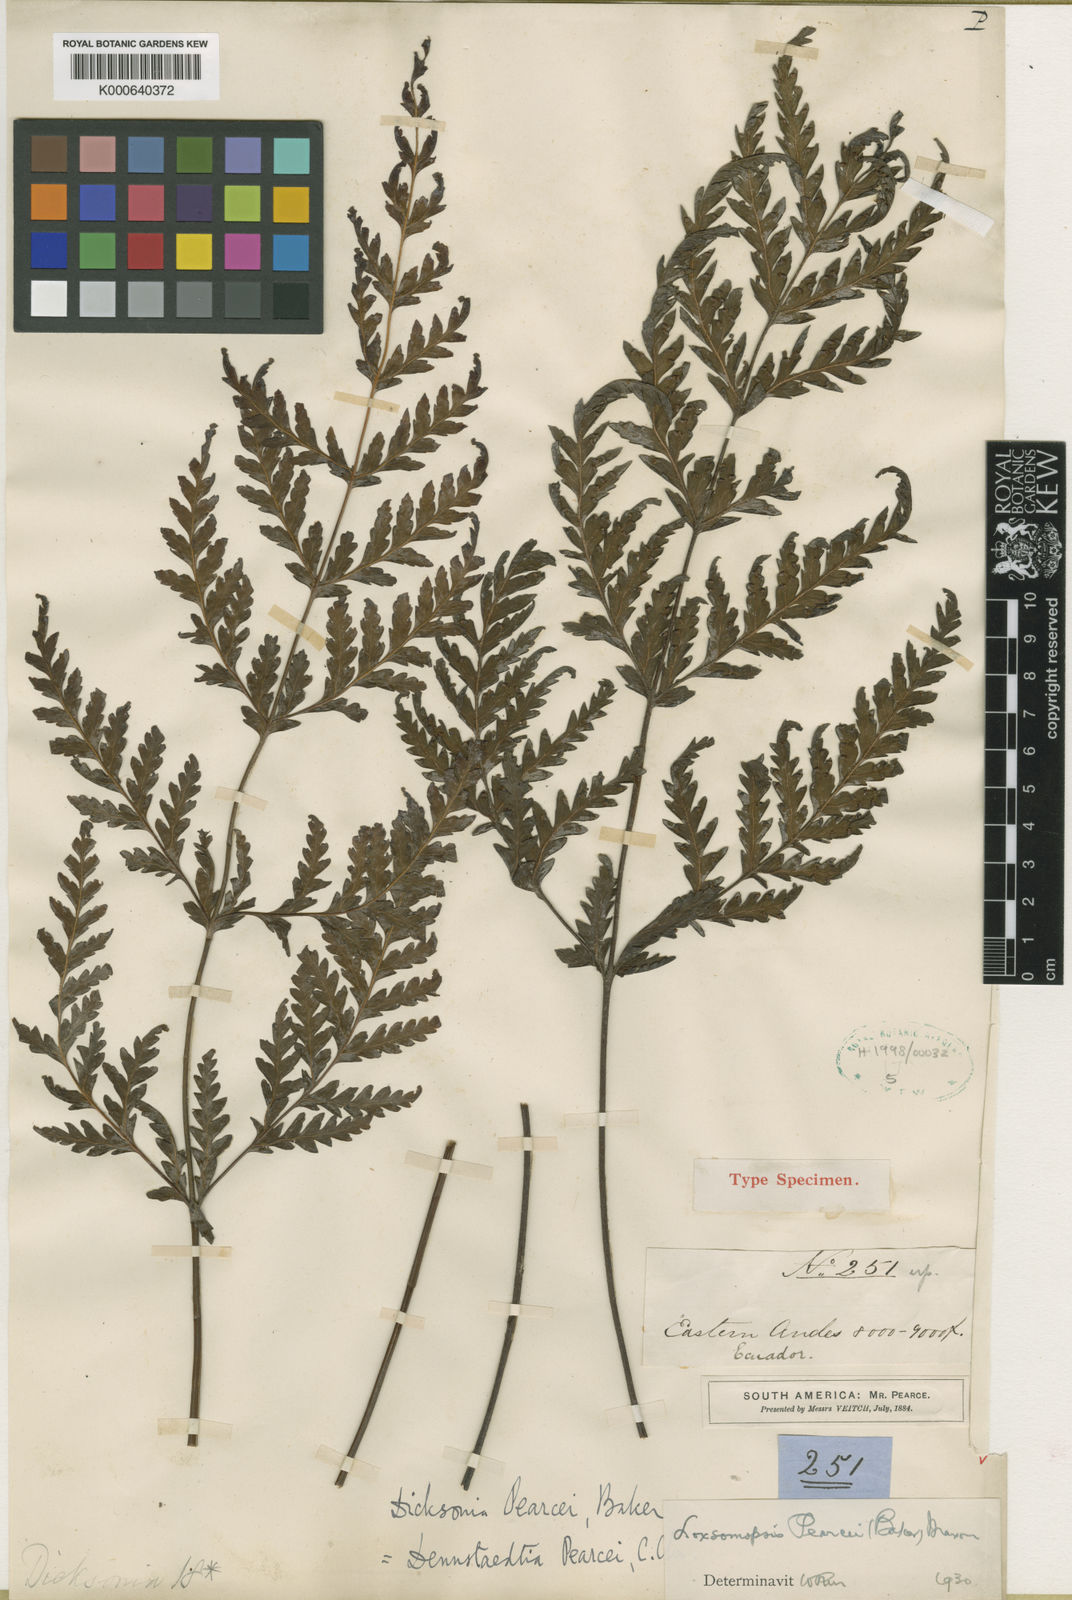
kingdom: Plantae
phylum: Tracheophyta
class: Polypodiopsida
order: Cyatheales
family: Loxsomataceae
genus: Loxsomopsis
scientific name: Loxsomopsis pearcei
